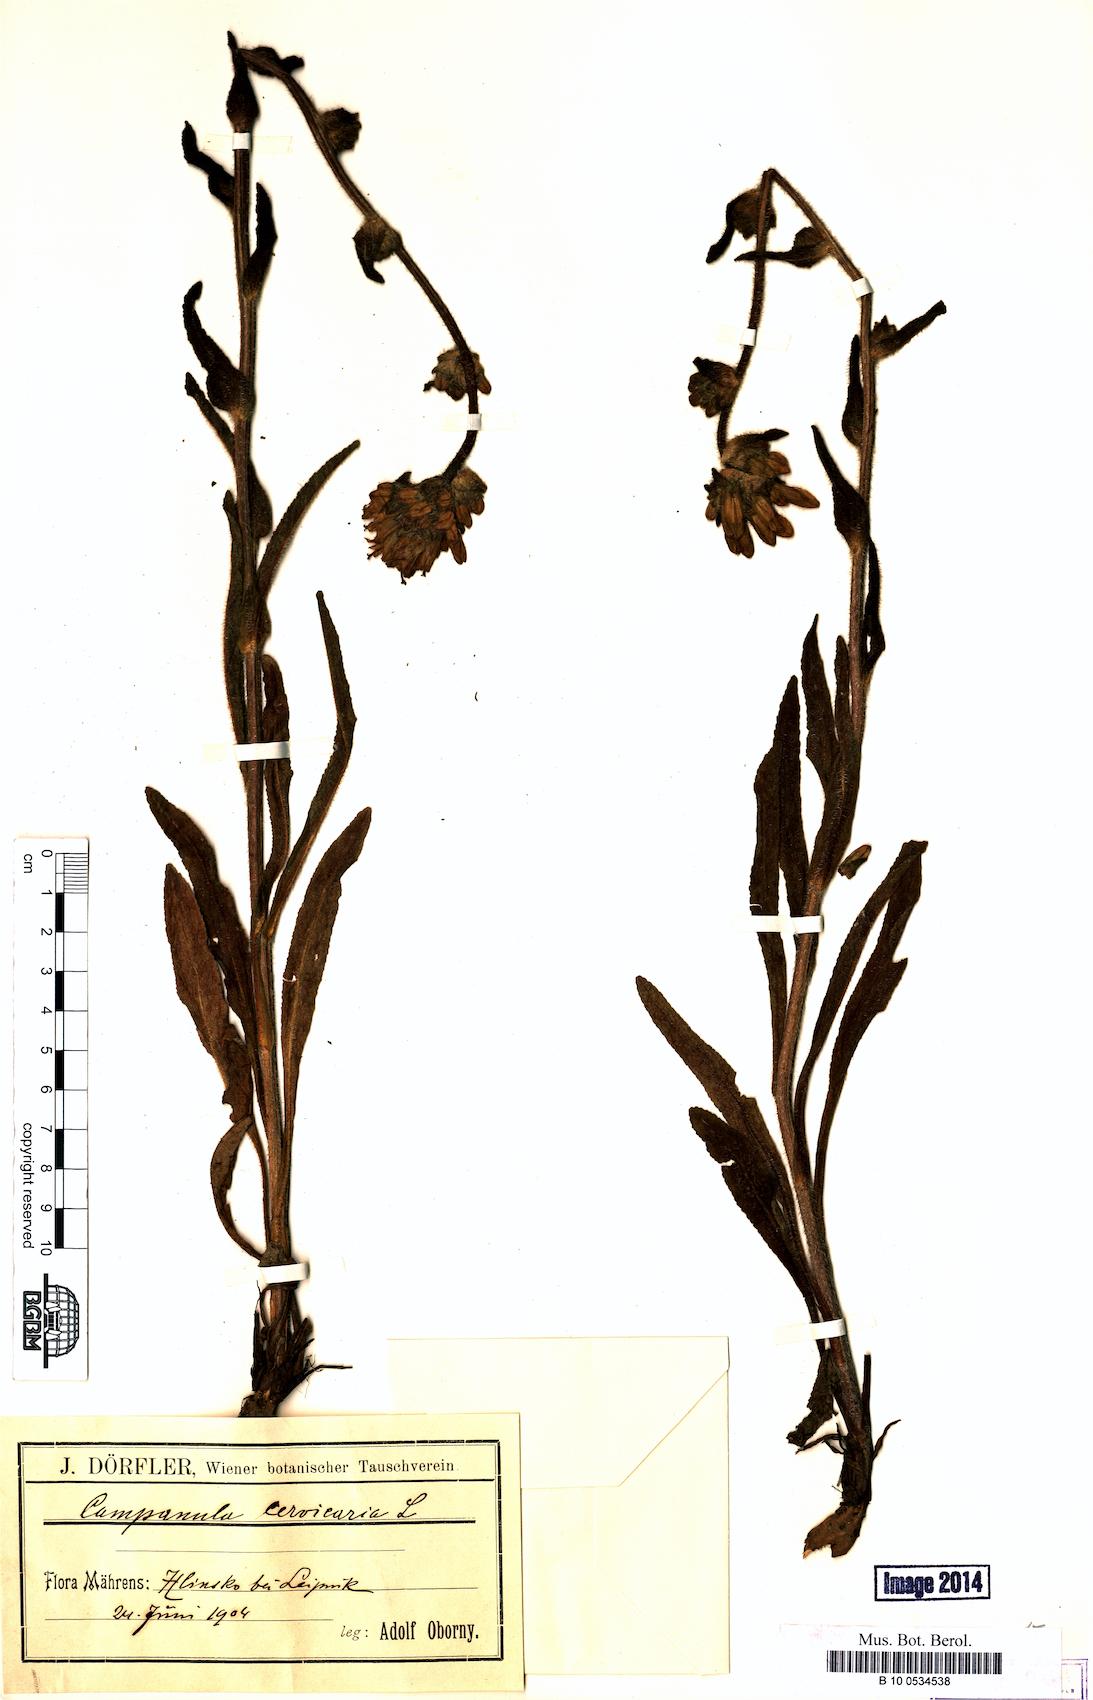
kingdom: Plantae
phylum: Tracheophyta
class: Magnoliopsida
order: Asterales
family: Campanulaceae
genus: Campanula
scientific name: Campanula cervicaria
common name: Bristly bellflower
